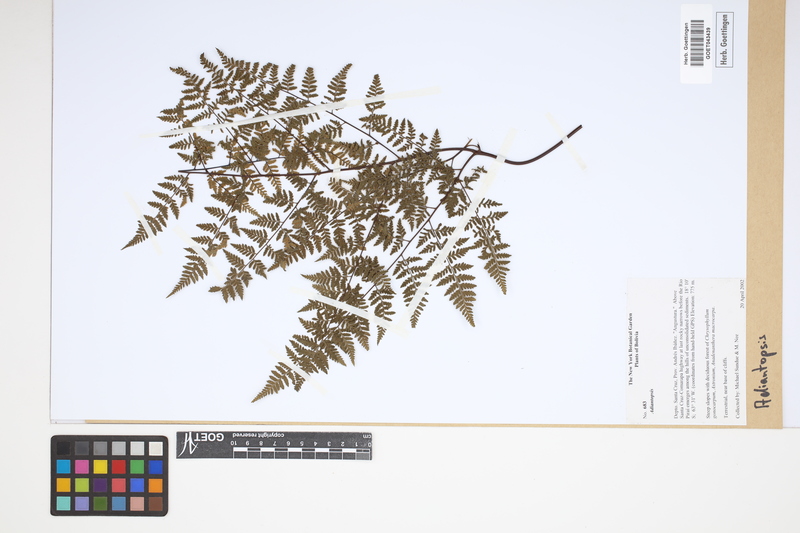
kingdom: Plantae
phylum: Tracheophyta
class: Polypodiopsida
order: Polypodiales
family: Pteridaceae
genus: Adiantopsis
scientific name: Adiantopsis
